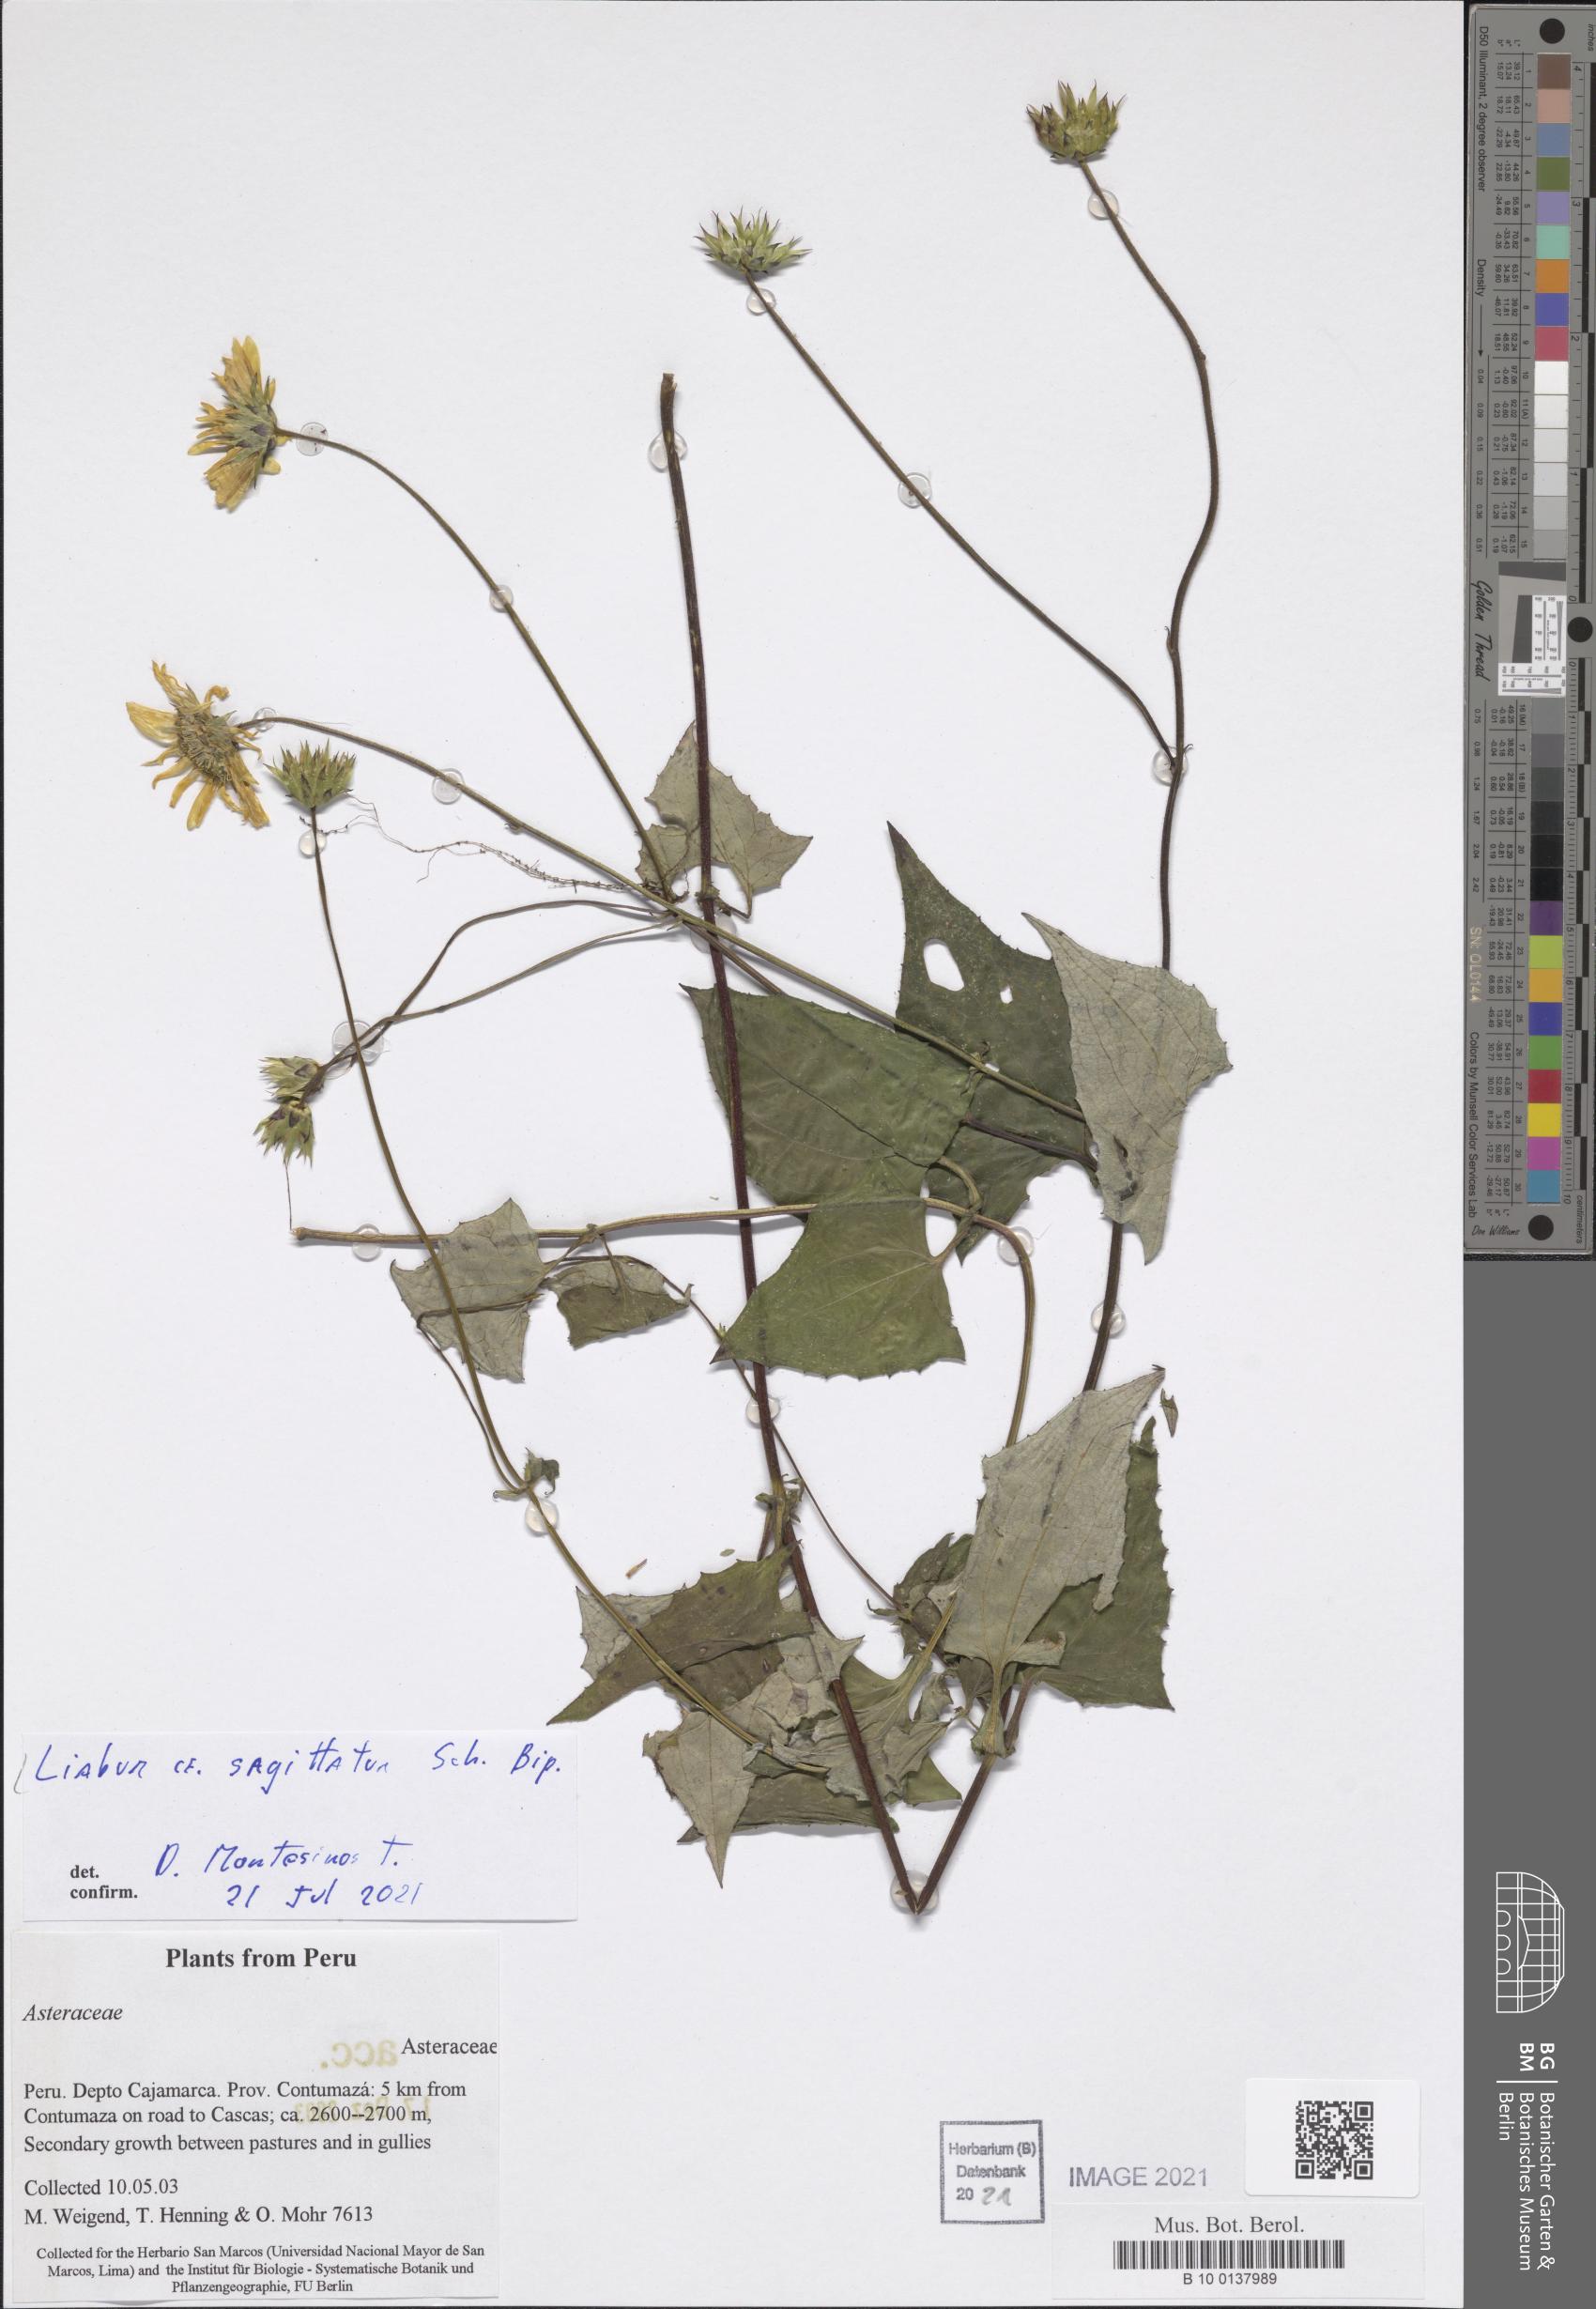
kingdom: Plantae
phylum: Tracheophyta
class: Magnoliopsida
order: Asterales
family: Asteraceae
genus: Munnozia
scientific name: Munnozia senecionidis
